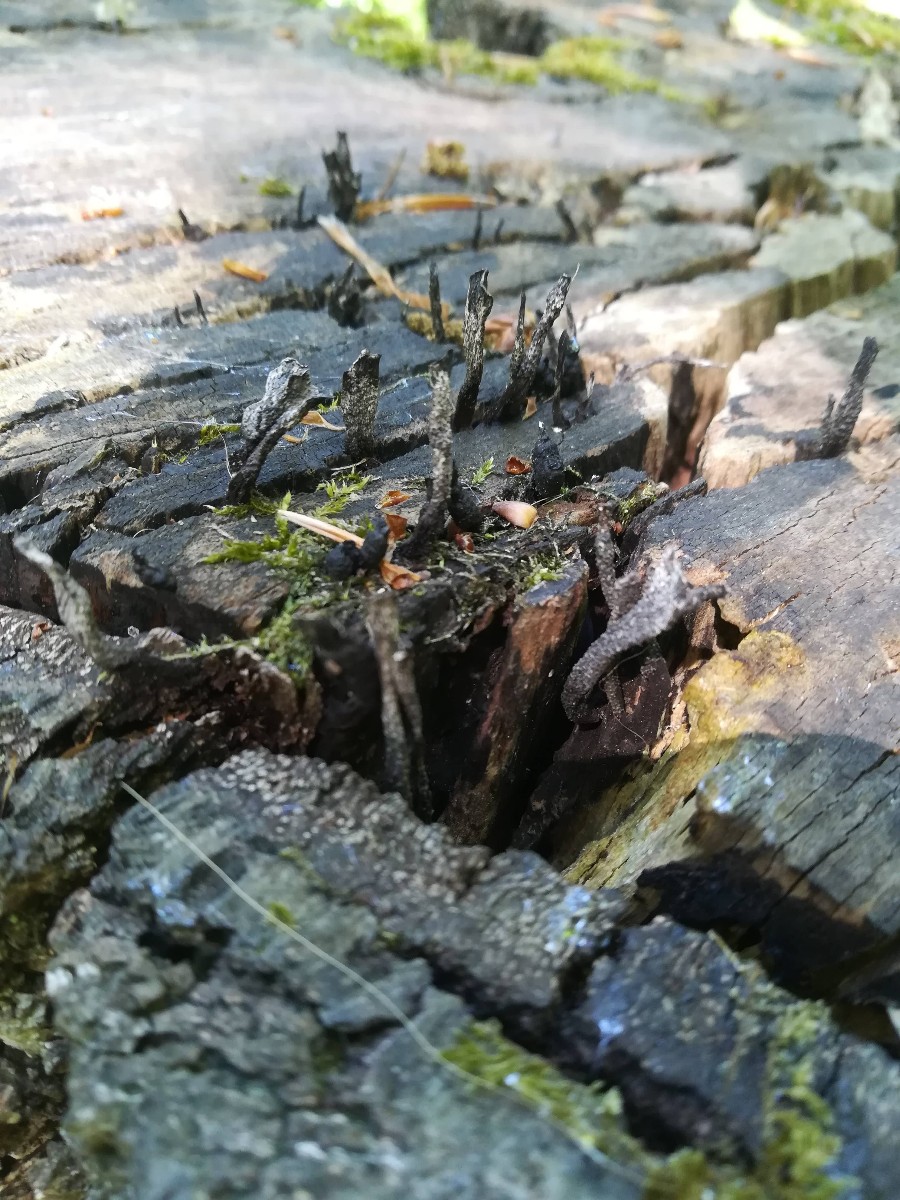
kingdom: Fungi
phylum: Ascomycota
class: Sordariomycetes
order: Xylariales
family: Xylariaceae
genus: Xylaria
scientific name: Xylaria hypoxylon
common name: grenet stødsvamp
